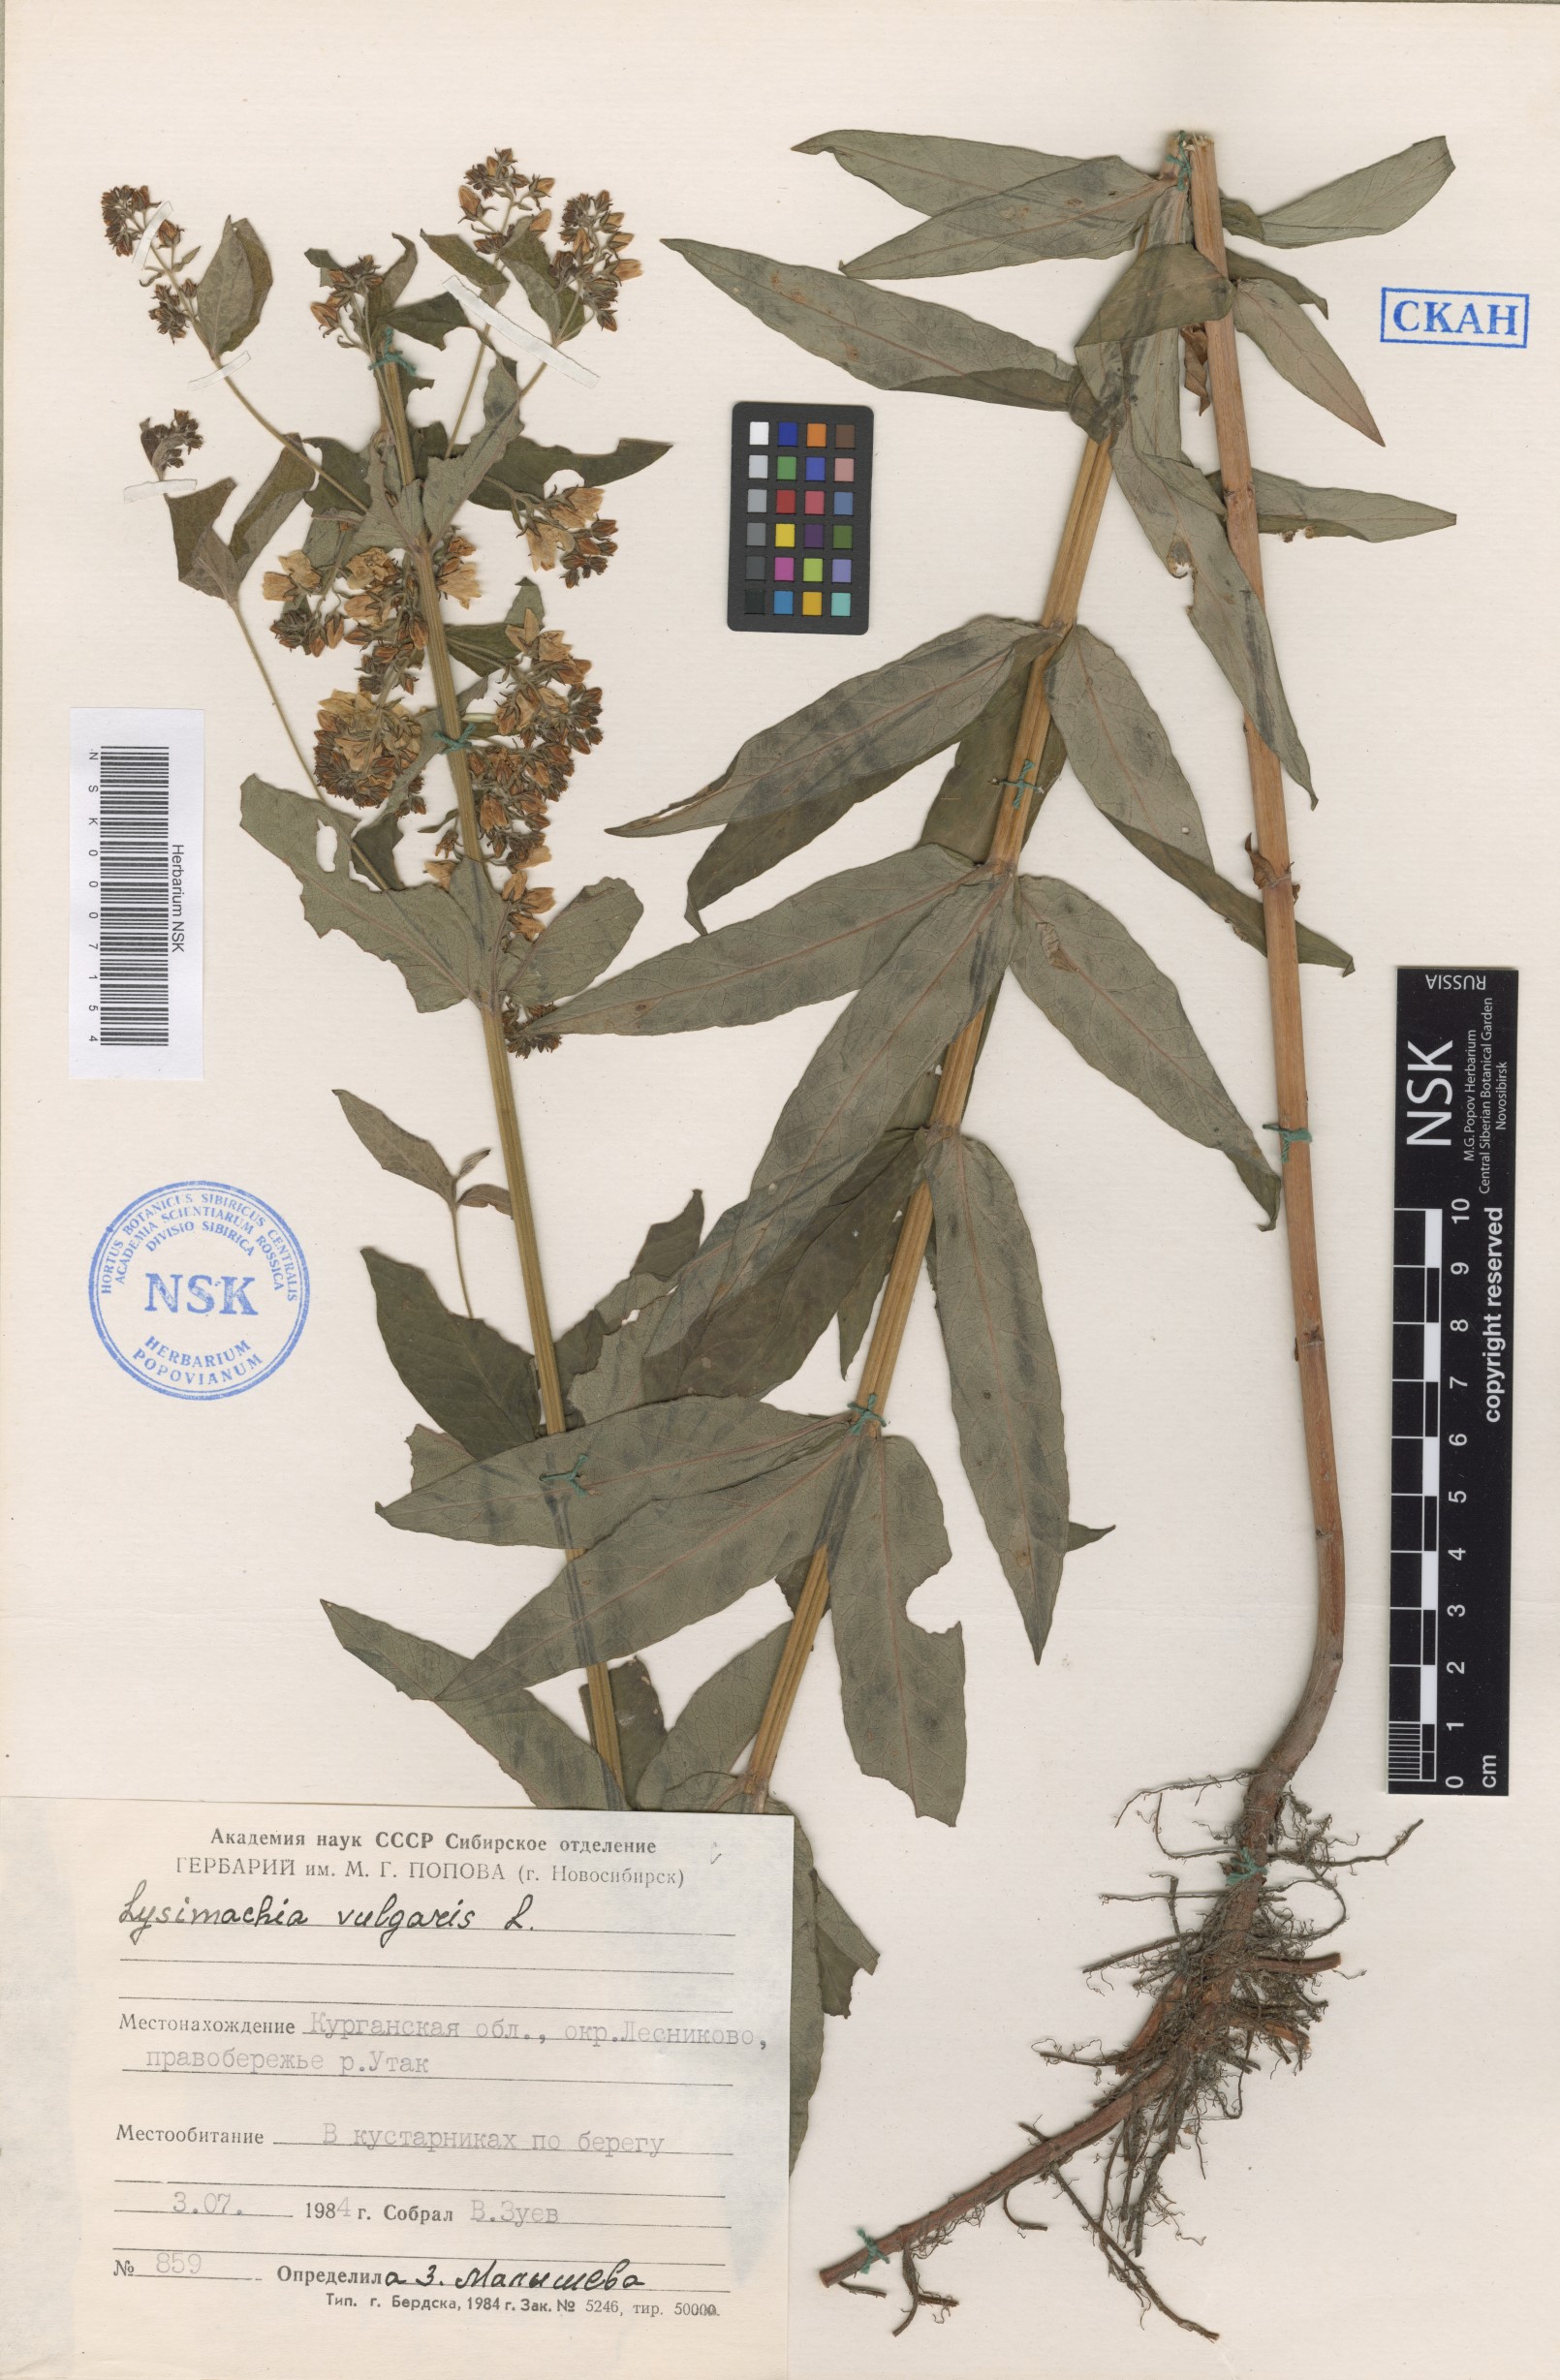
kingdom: Plantae
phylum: Tracheophyta
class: Magnoliopsida
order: Ericales
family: Primulaceae
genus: Lysimachia
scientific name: Lysimachia vulgaris
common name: Yellow loosestrife
